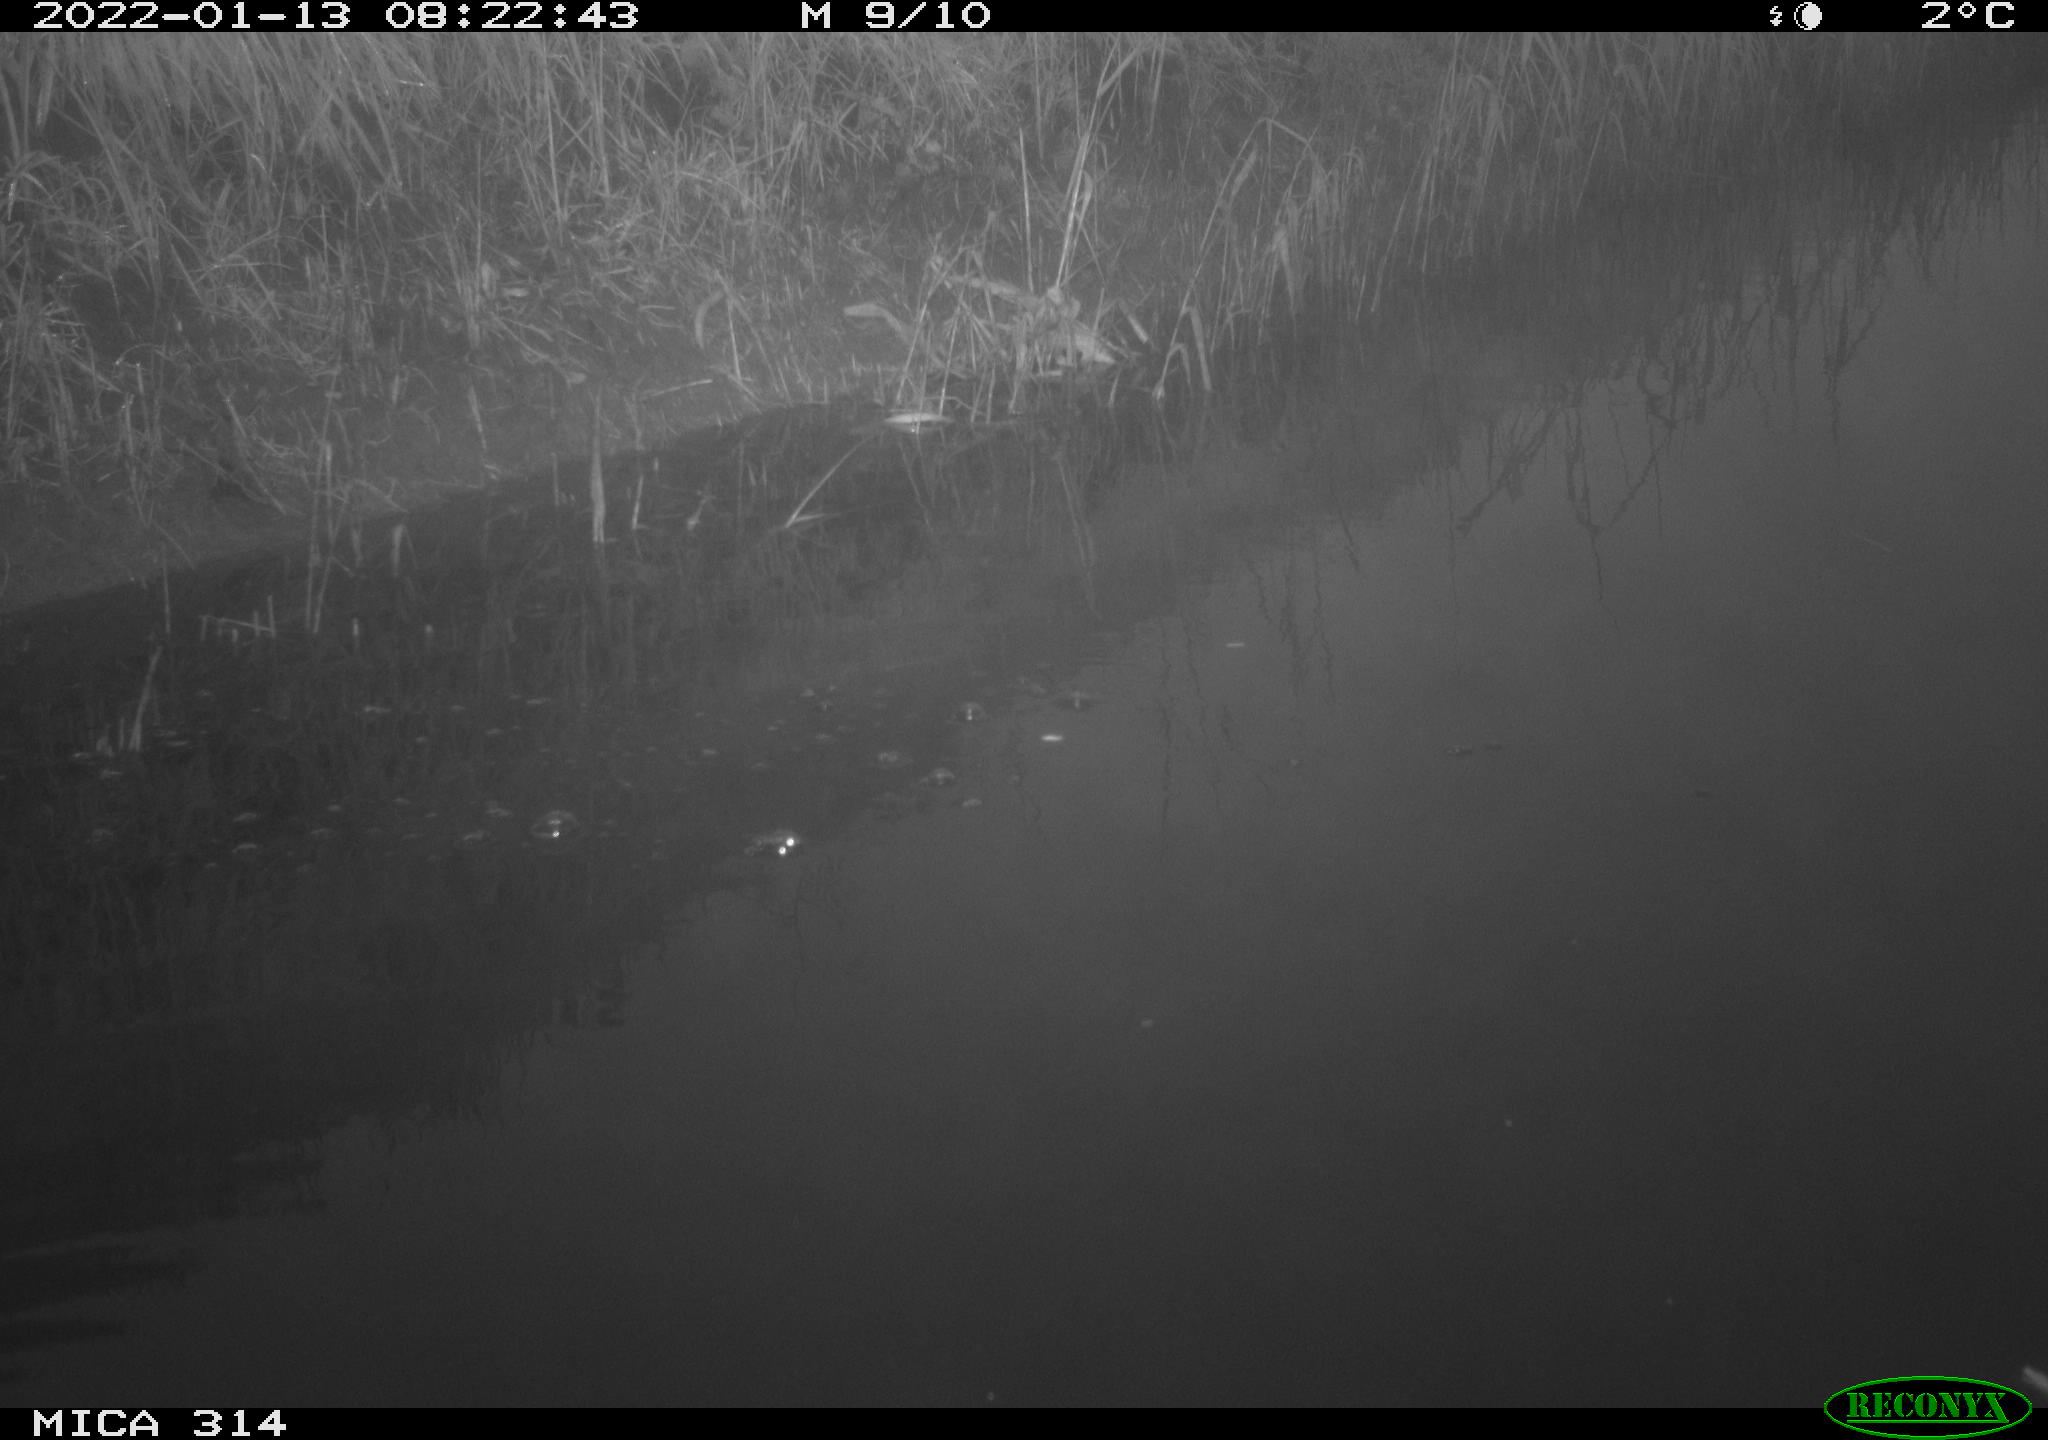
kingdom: Animalia
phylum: Chordata
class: Aves
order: Gruiformes
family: Rallidae
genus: Fulica
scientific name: Fulica atra
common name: Eurasian coot
